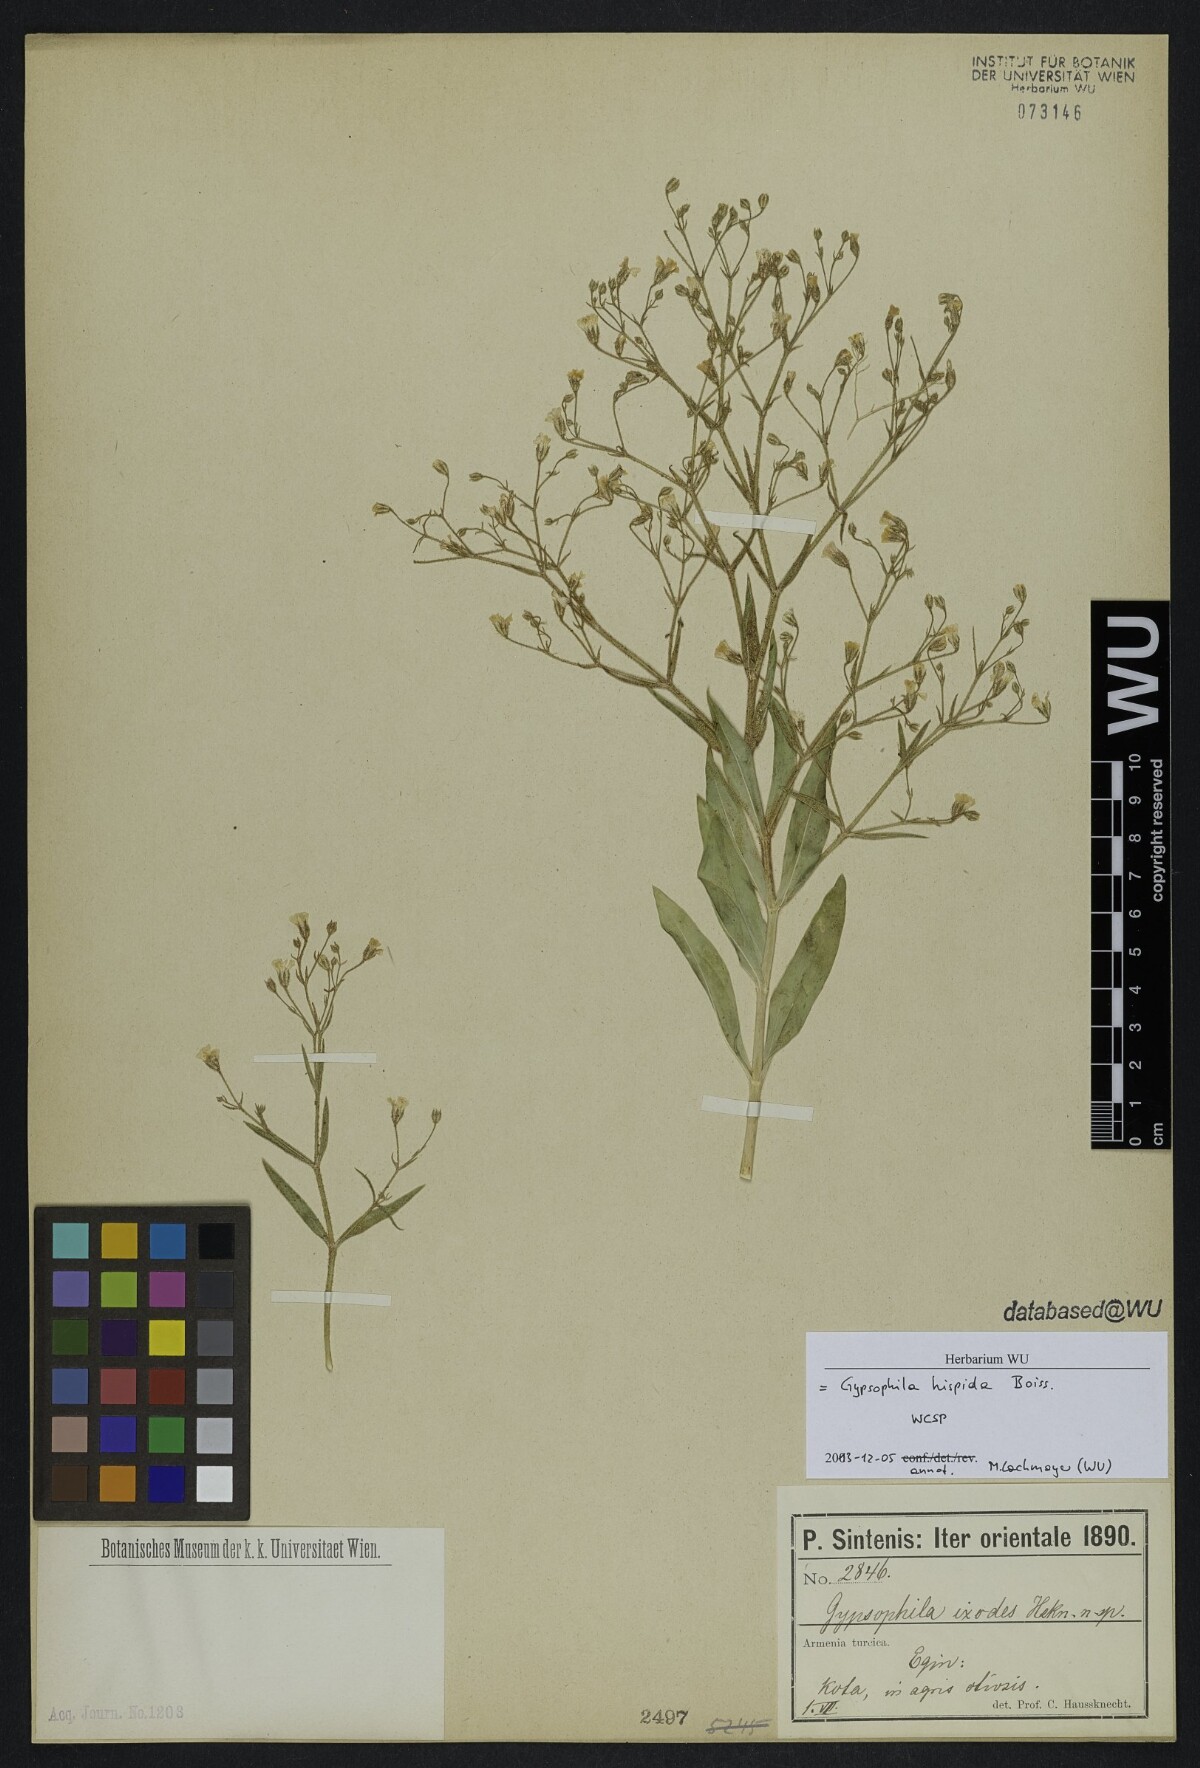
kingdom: Plantae
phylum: Tracheophyta
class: Magnoliopsida
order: Caryophyllales
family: Caryophyllaceae
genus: Gypsophila
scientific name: Gypsophila hispida
